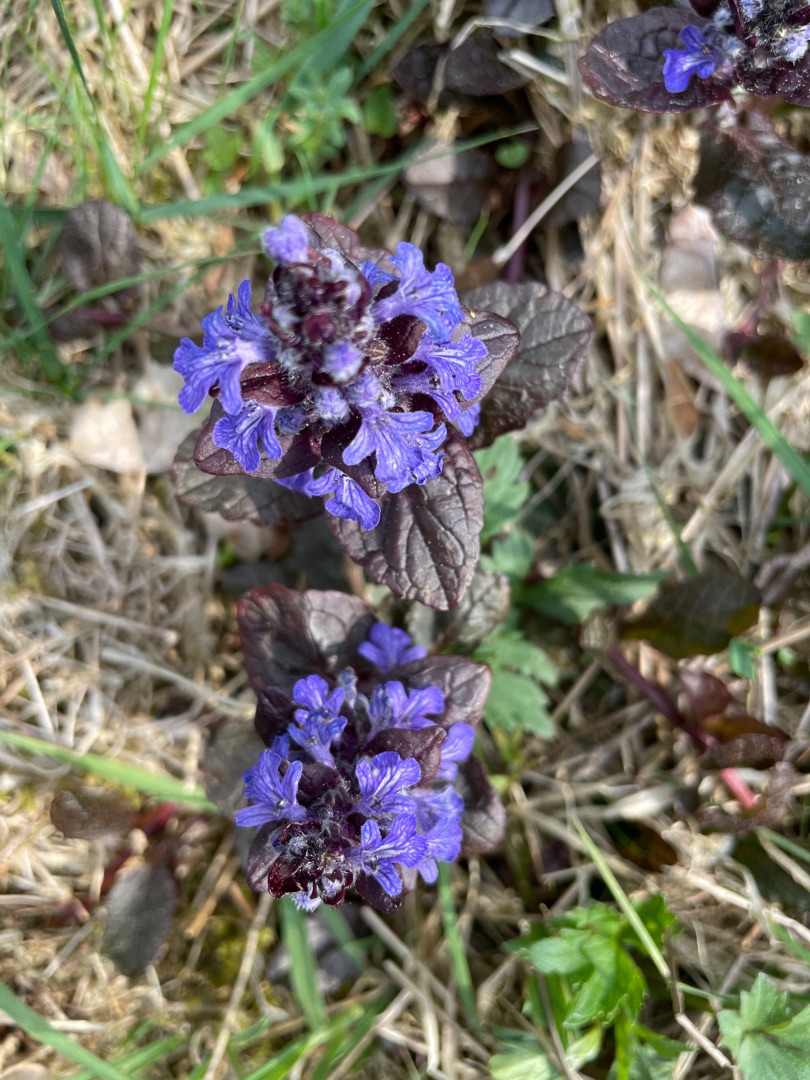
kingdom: Plantae
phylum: Tracheophyta
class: Magnoliopsida
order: Lamiales
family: Lamiaceae
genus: Ajuga
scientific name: Ajuga reptans
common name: Krybende læbeløs
